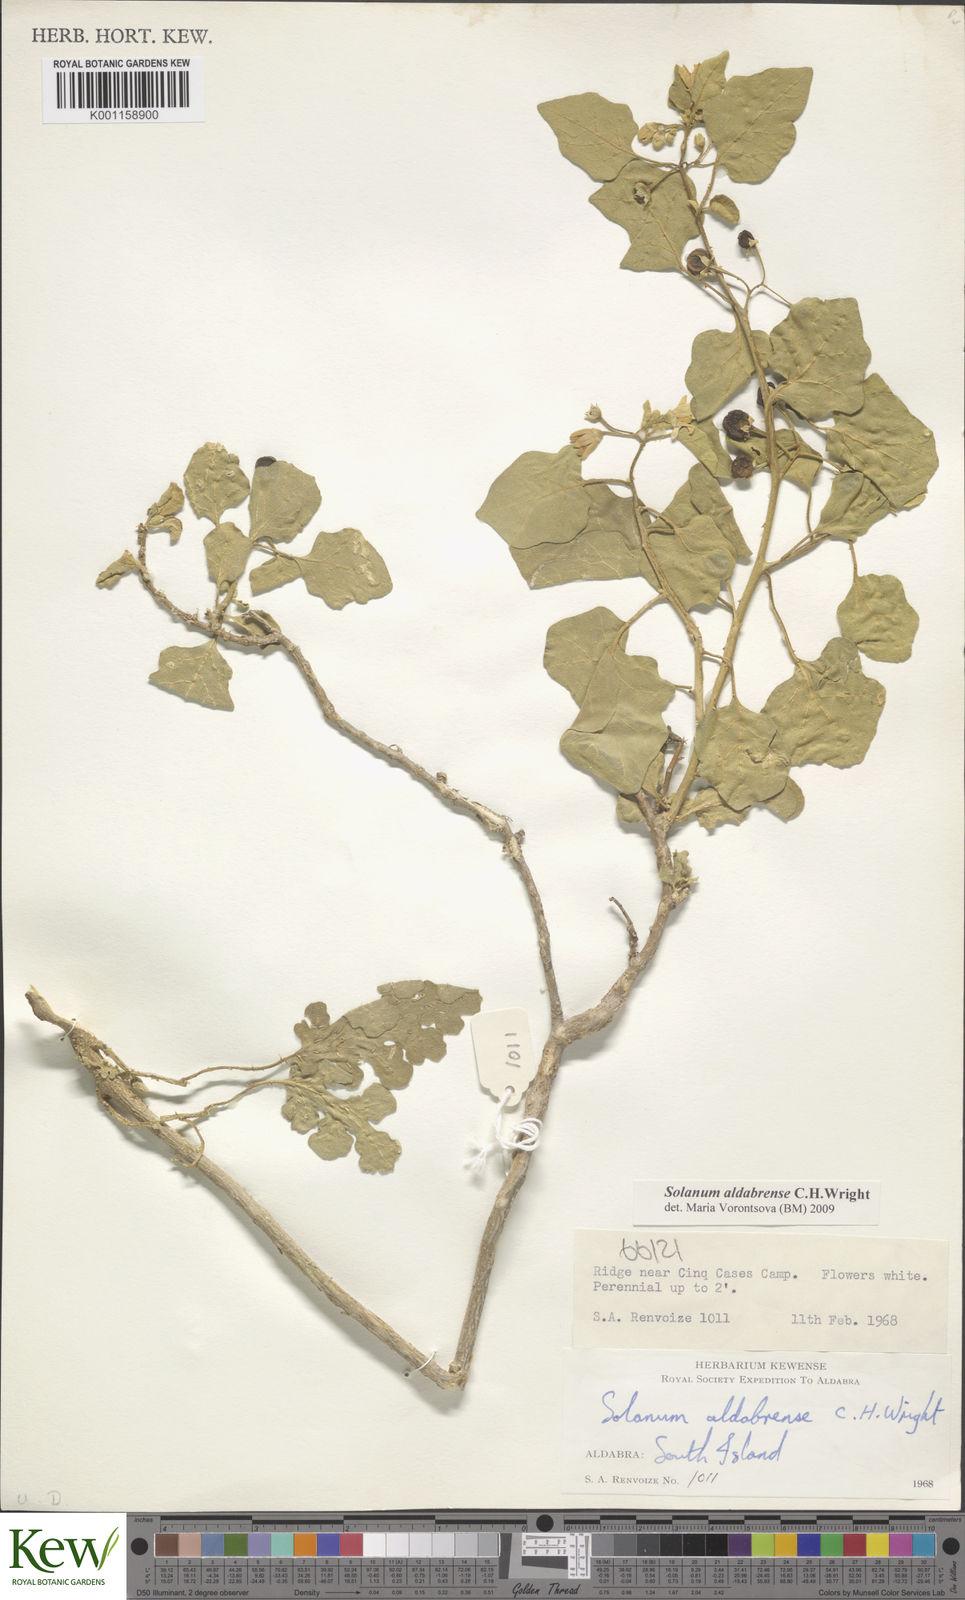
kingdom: Plantae
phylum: Tracheophyta
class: Magnoliopsida
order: Solanales
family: Solanaceae
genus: Solanum
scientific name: Solanum aldabrense
